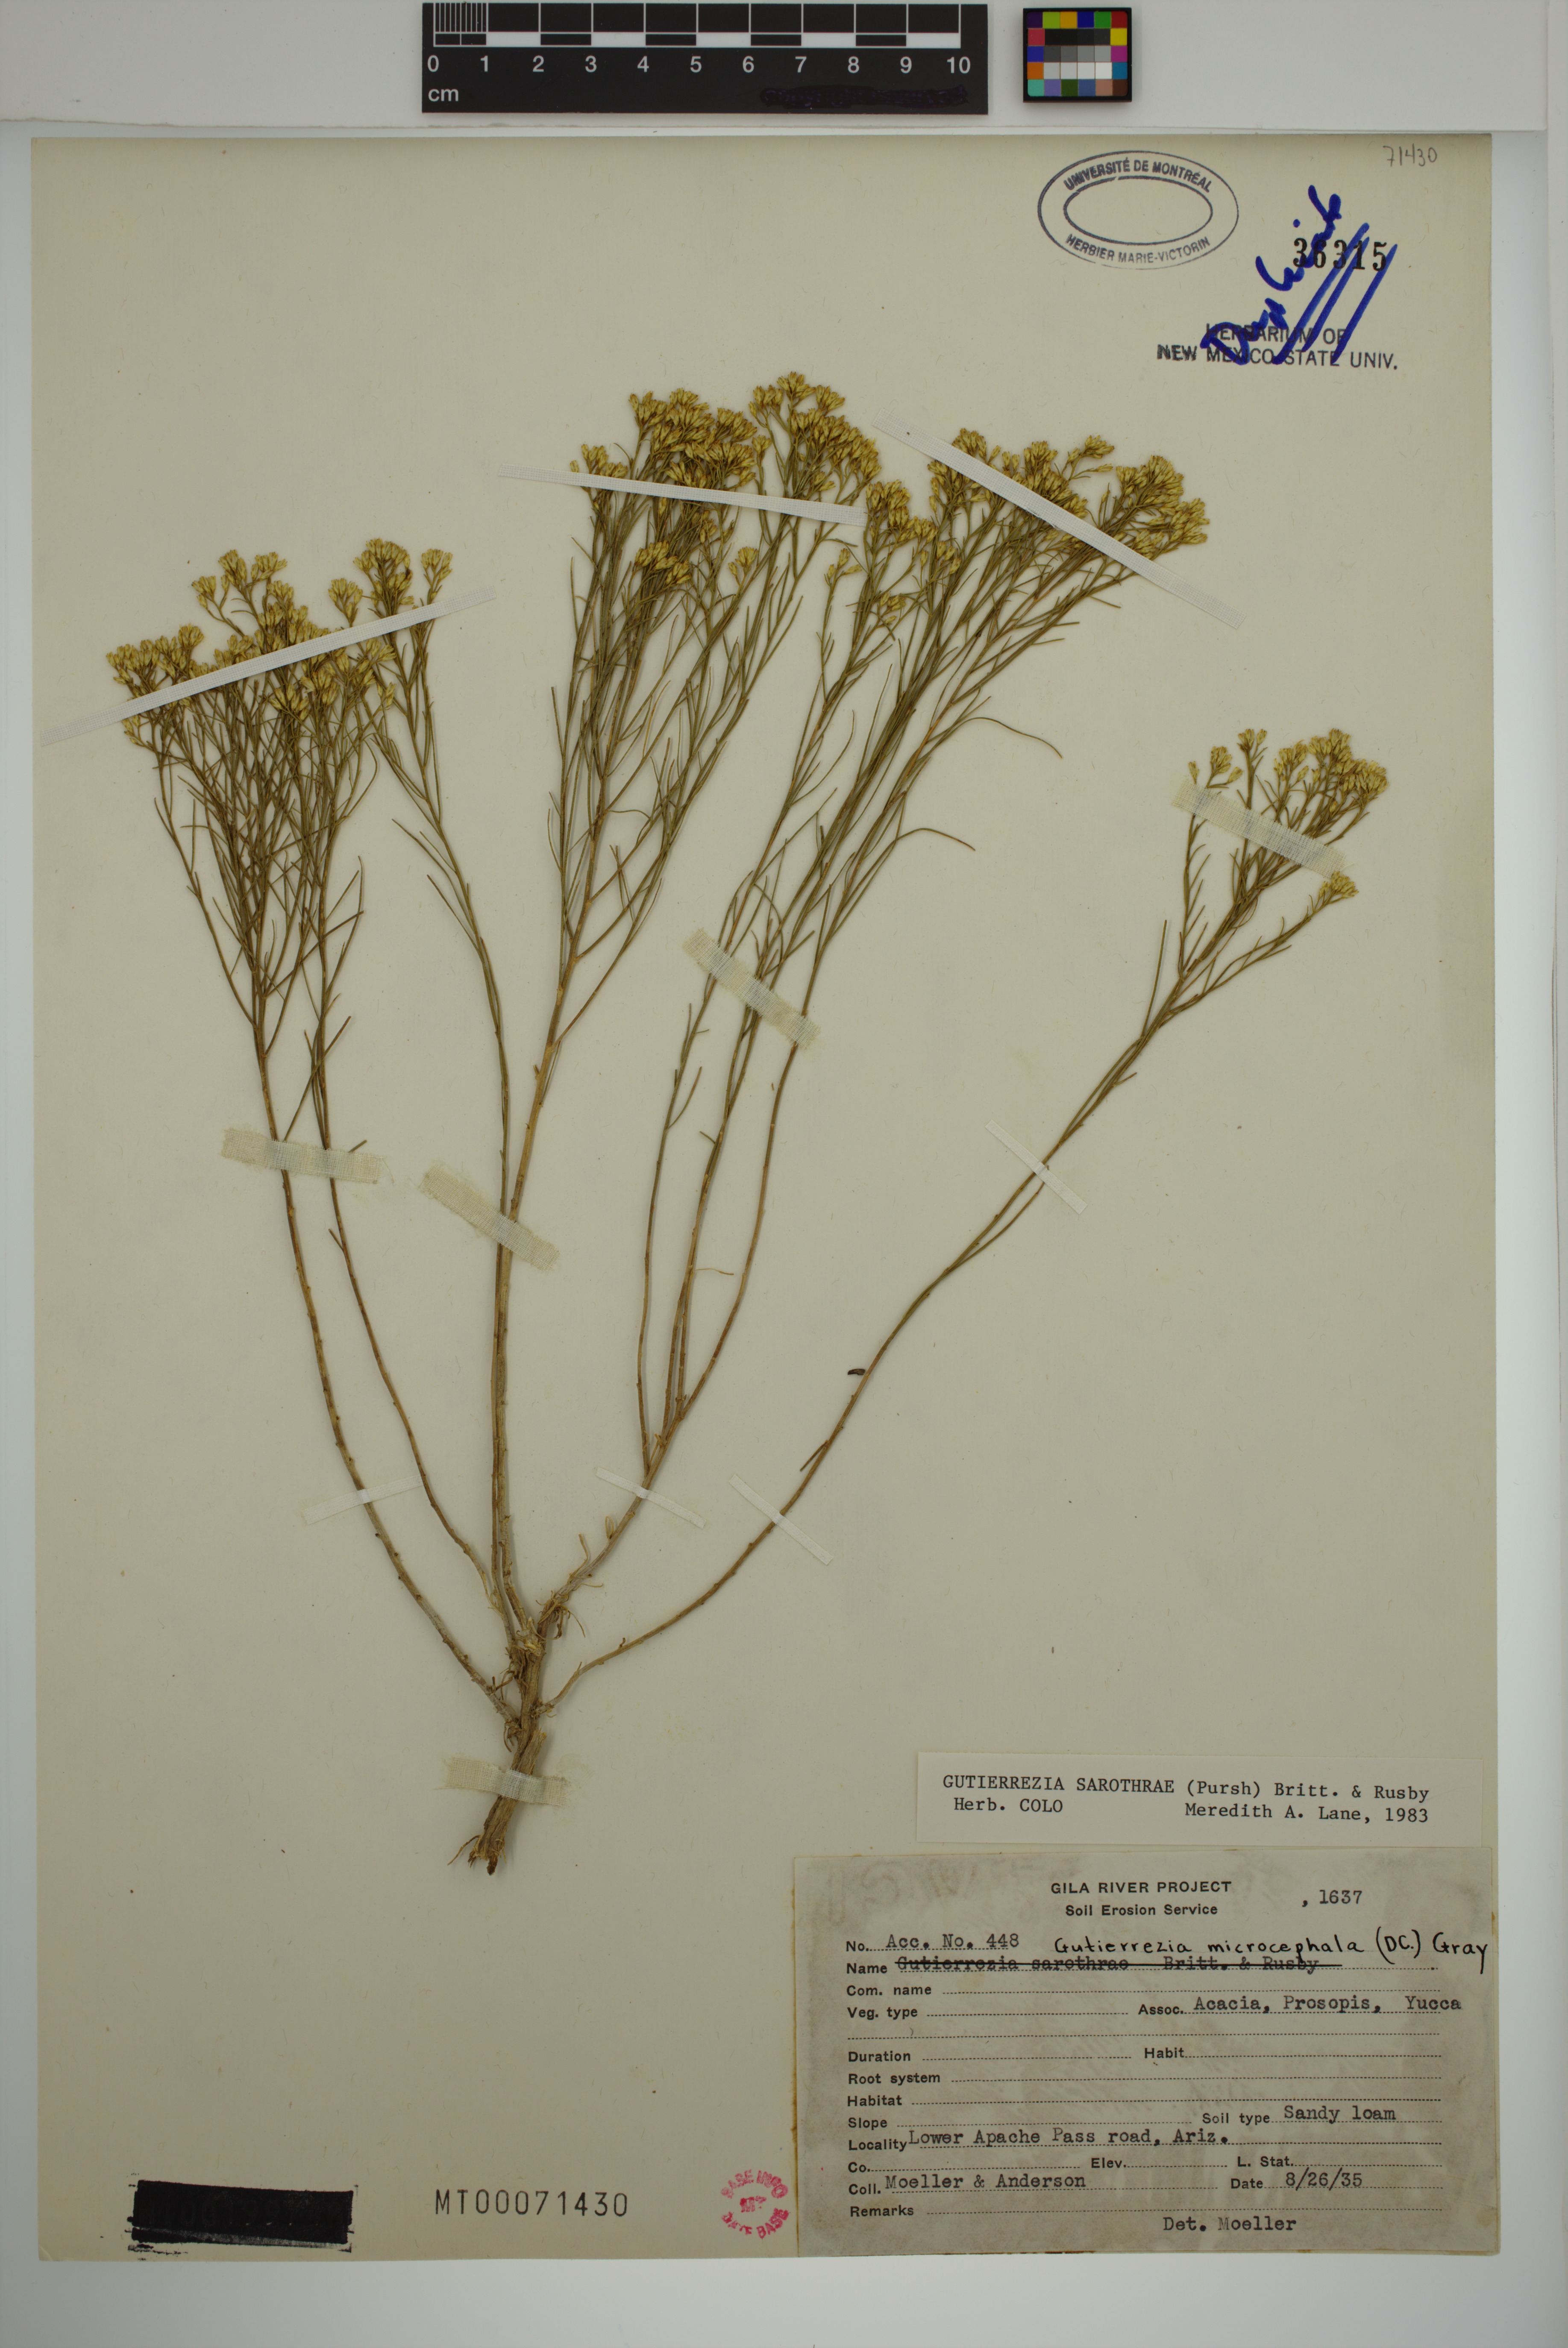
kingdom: Plantae
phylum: Tracheophyta
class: Magnoliopsida
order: Asterales
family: Asteraceae
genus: Gutierrezia
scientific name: Gutierrezia sarothrae
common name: Broom snakeweed
